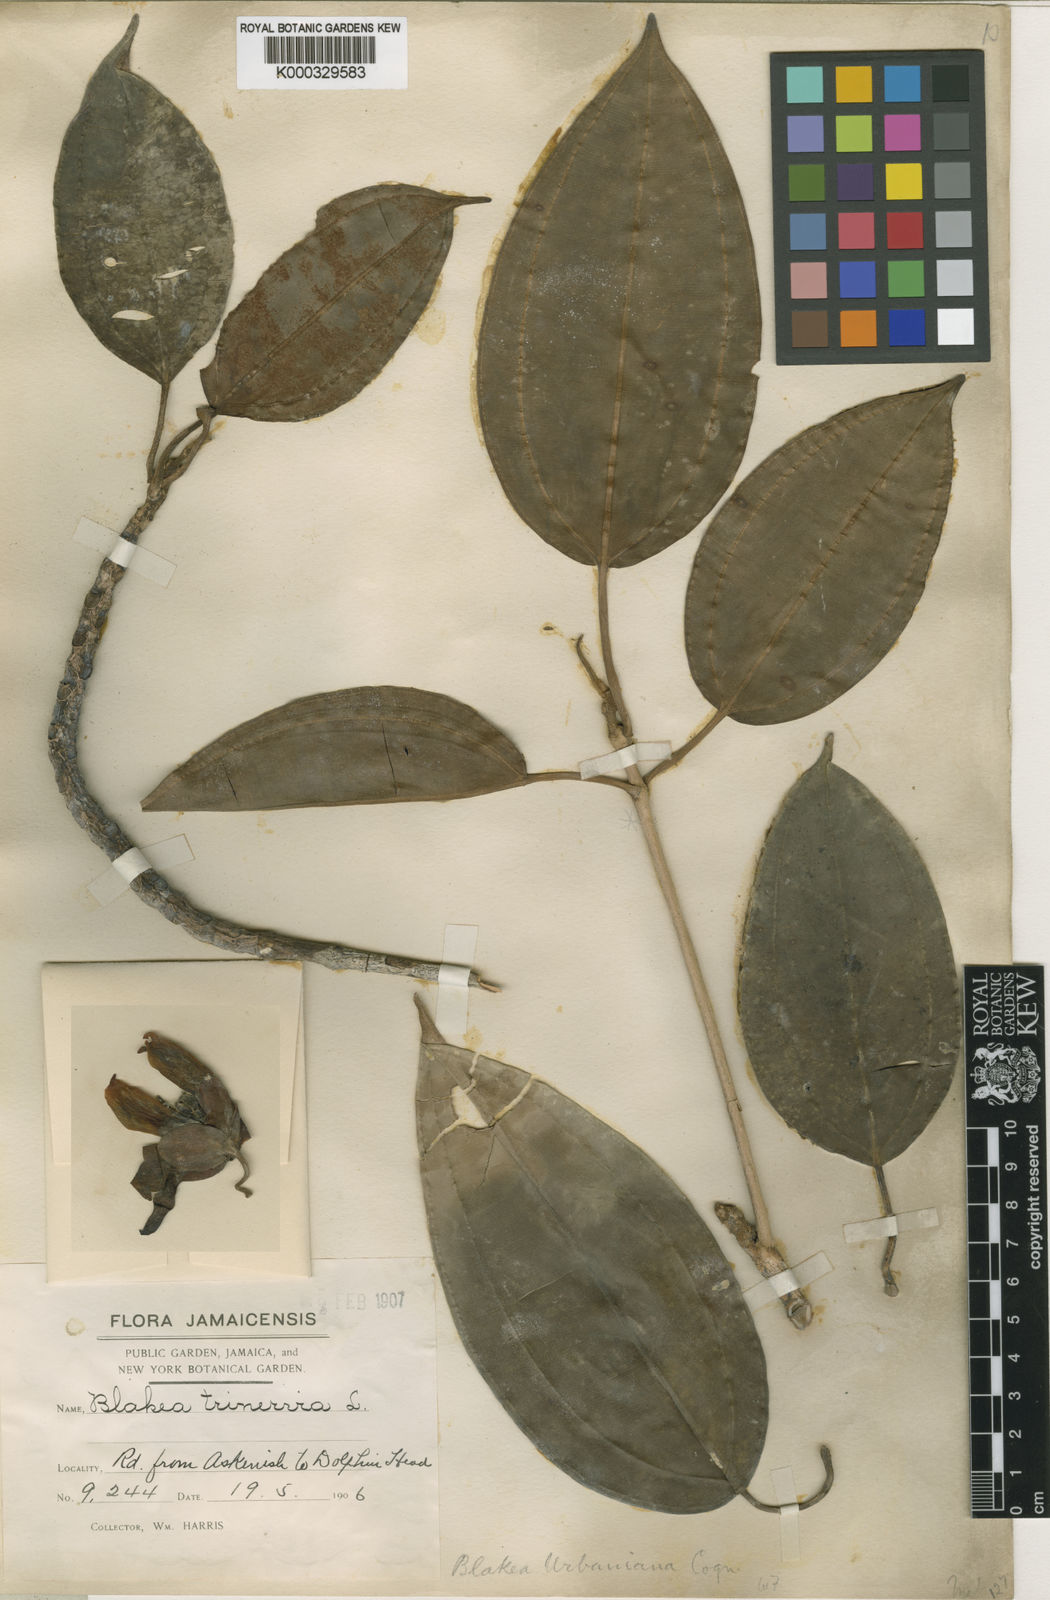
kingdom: Plantae
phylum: Tracheophyta
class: Magnoliopsida
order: Myrtales
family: Melastomataceae
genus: Blakea
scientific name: Blakea urbaniana
